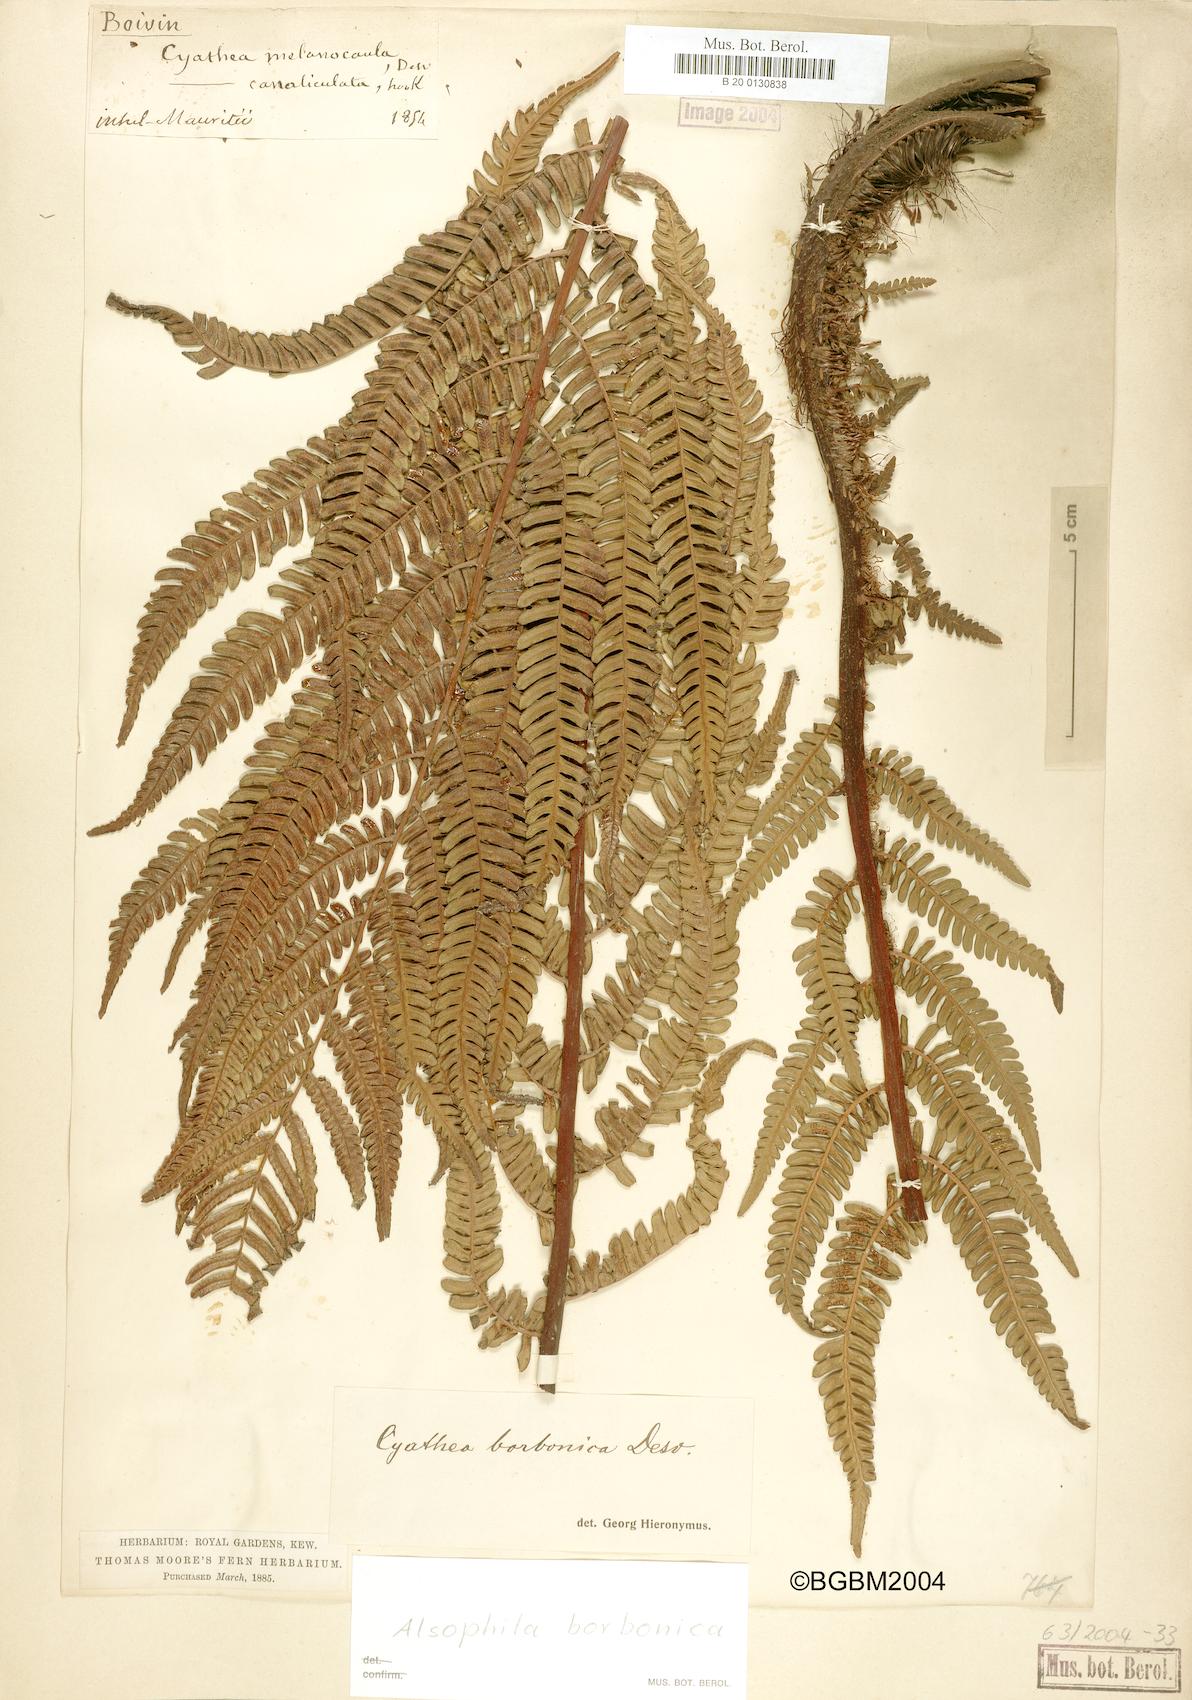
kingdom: Plantae
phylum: Tracheophyta
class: Polypodiopsida
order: Cyatheales
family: Cyatheaceae
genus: Alsophila
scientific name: Alsophila borbonica
